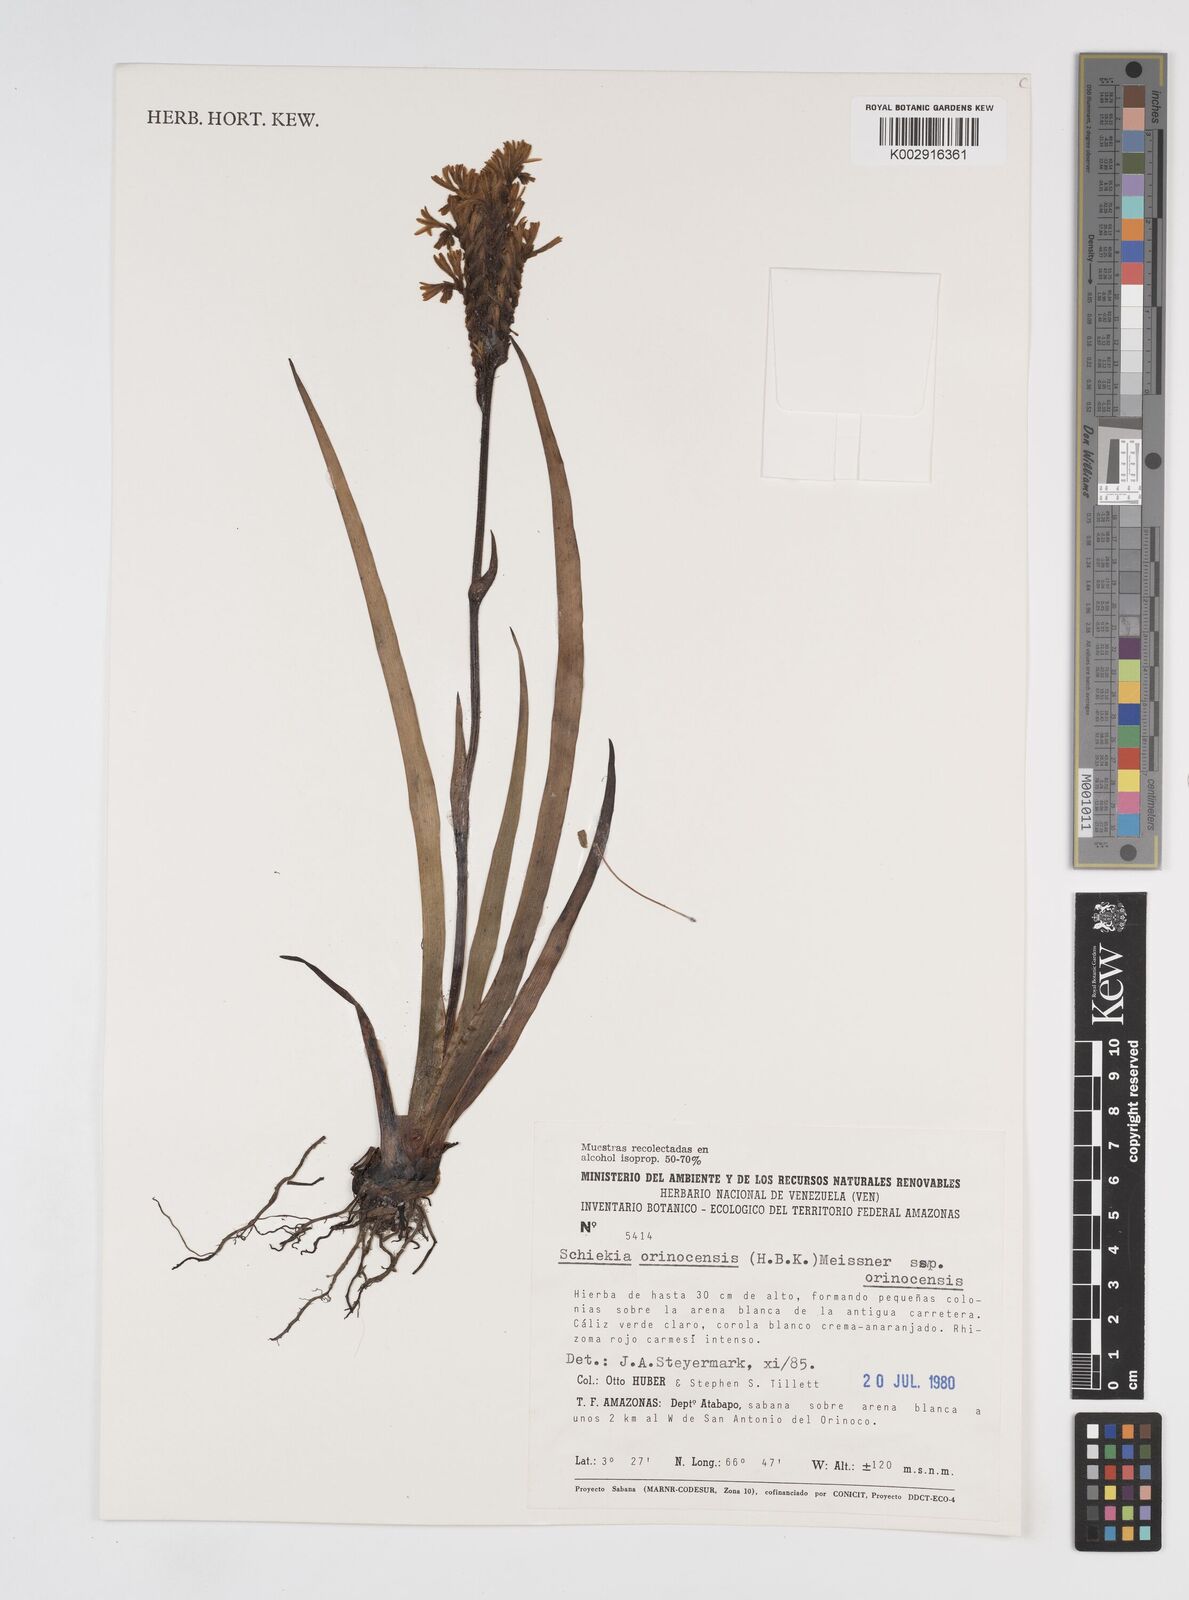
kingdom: Plantae
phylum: Tracheophyta
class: Liliopsida
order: Commelinales
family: Haemodoraceae
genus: Schiekia
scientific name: Schiekia orinocensis
